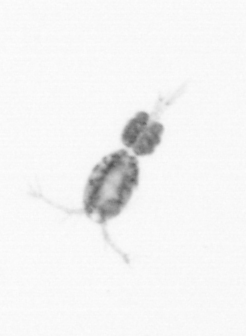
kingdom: Animalia
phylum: Arthropoda
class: Copepoda
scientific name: Copepoda
